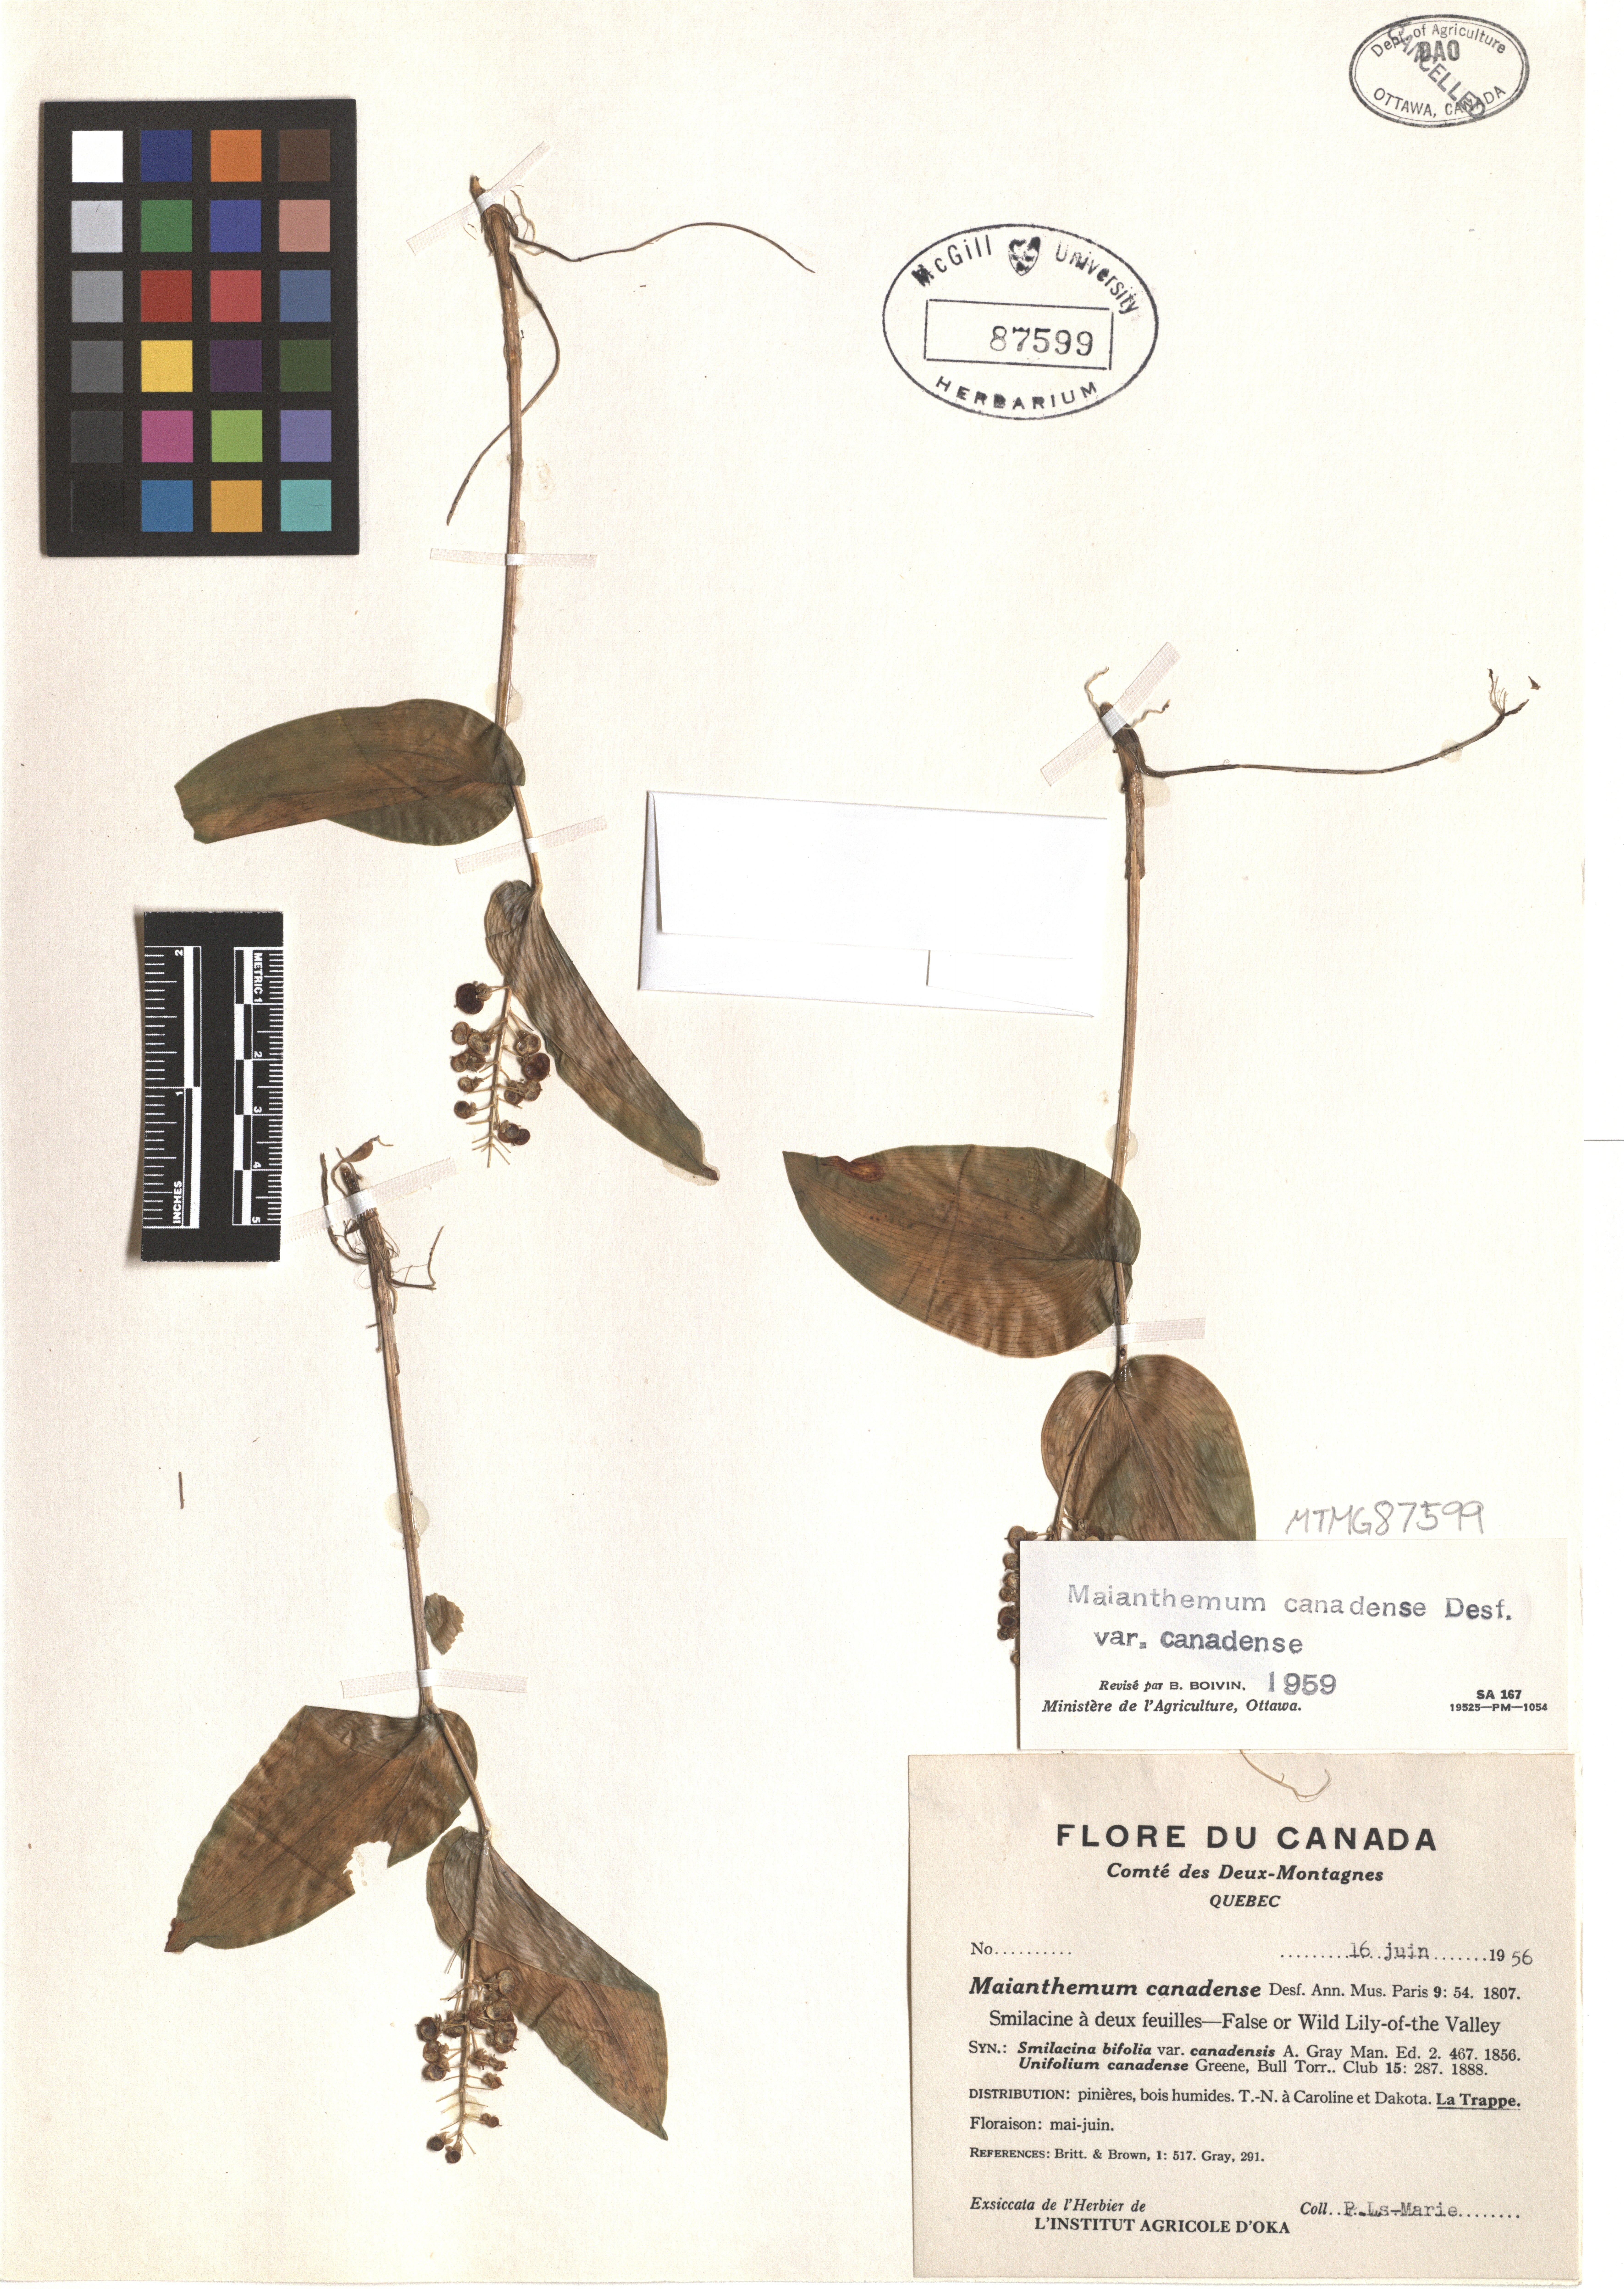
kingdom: Plantae
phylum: Tracheophyta
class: Liliopsida
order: Asparagales
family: Asparagaceae
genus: Maianthemum
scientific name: Maianthemum canadense
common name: False lily-of-the-valley
